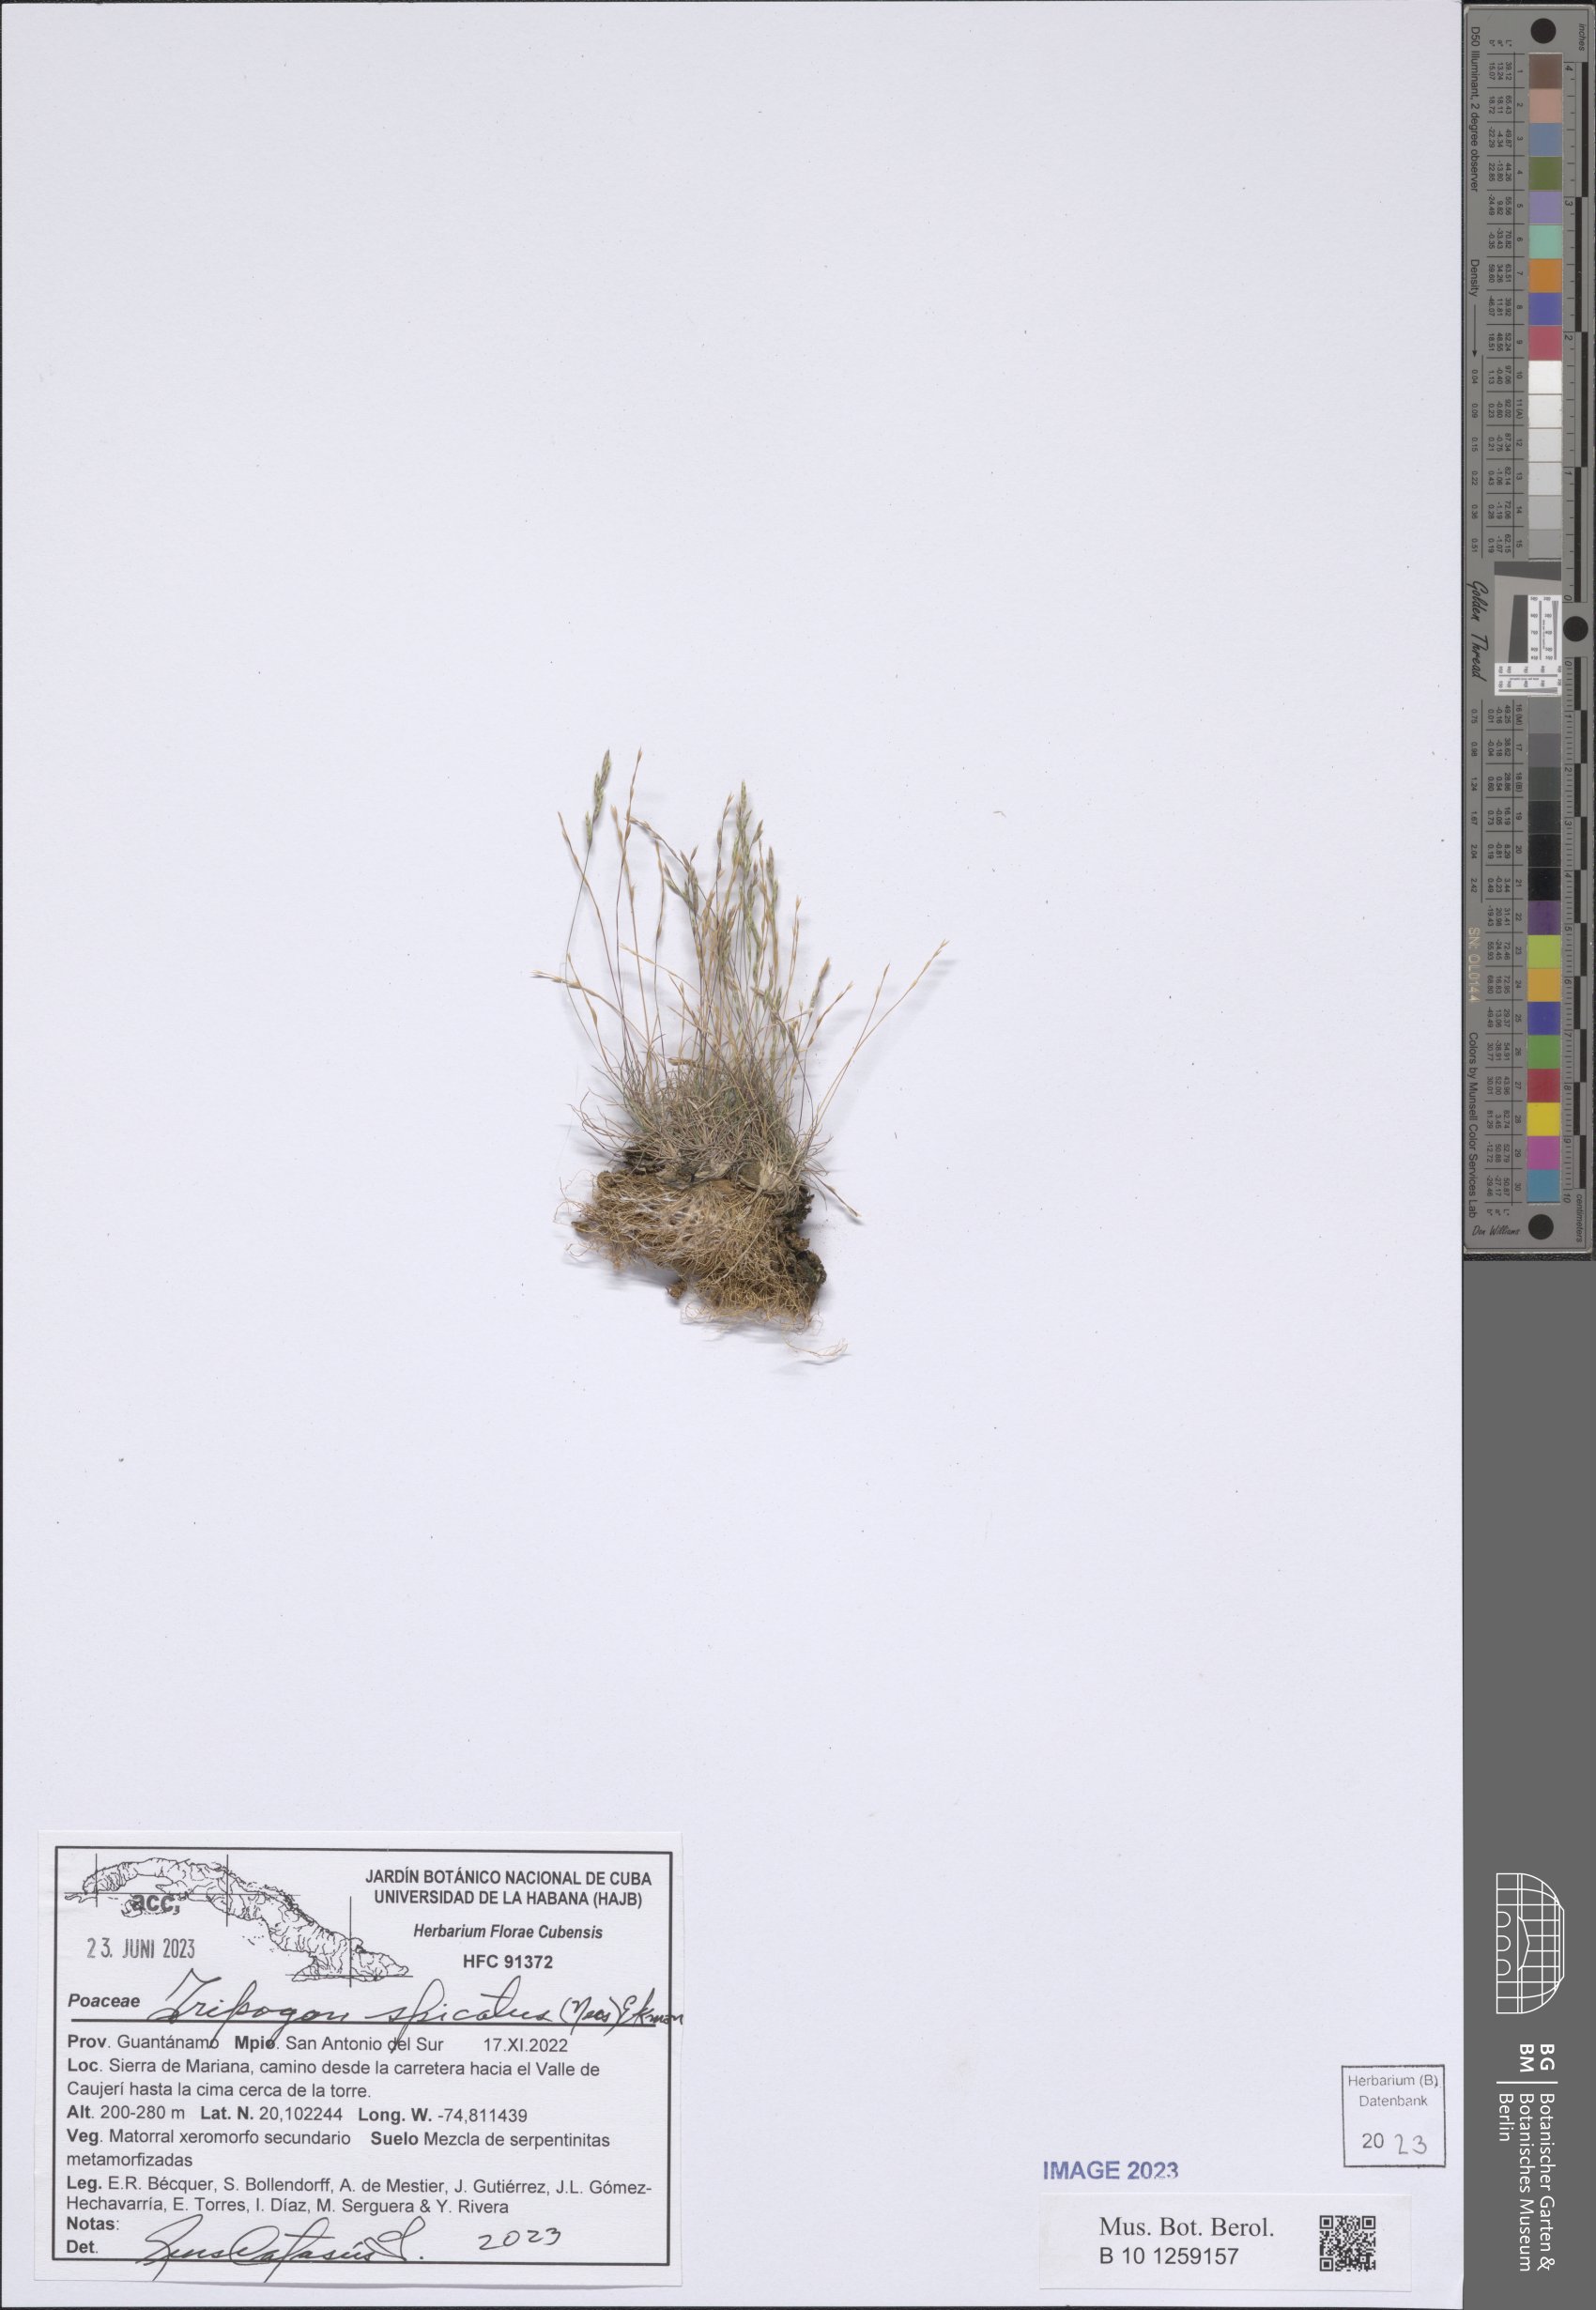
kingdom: Plantae
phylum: Tracheophyta
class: Liliopsida
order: Poales
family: Poaceae
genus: Tripogonella
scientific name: Tripogonella spicata
